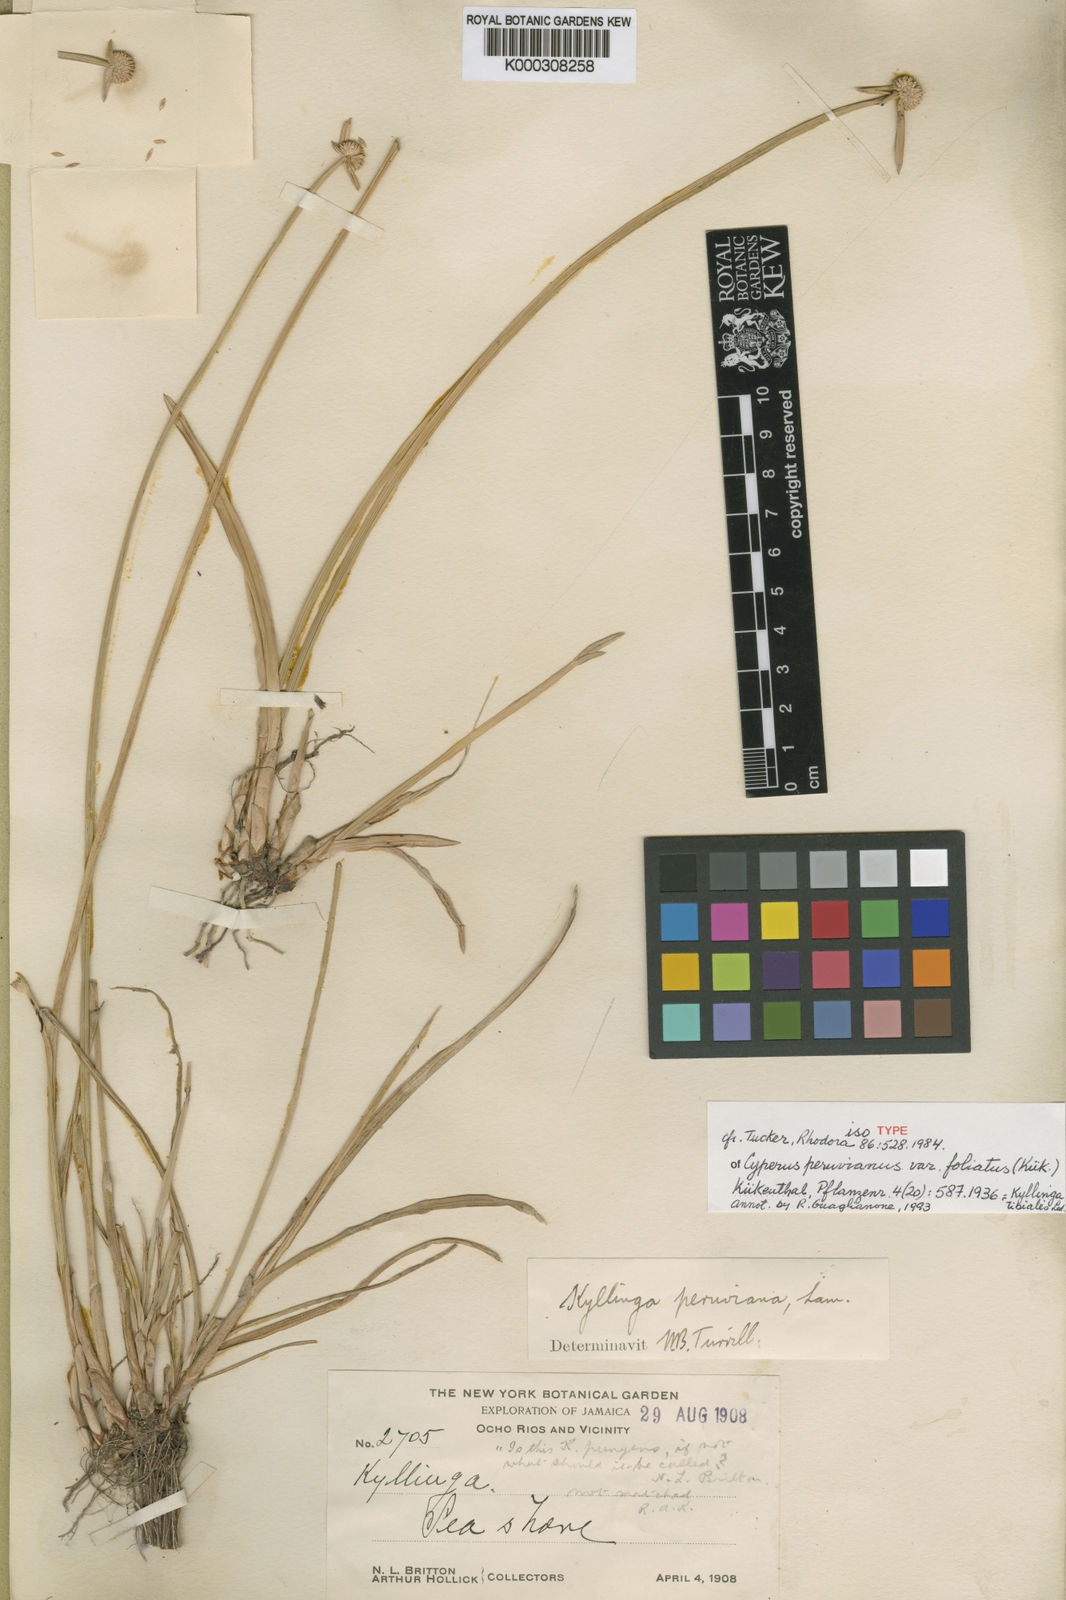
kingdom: Plantae
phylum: Tracheophyta
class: Liliopsida
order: Poales
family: Cyperaceae
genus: Cyperus
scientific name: Cyperus tibialis
